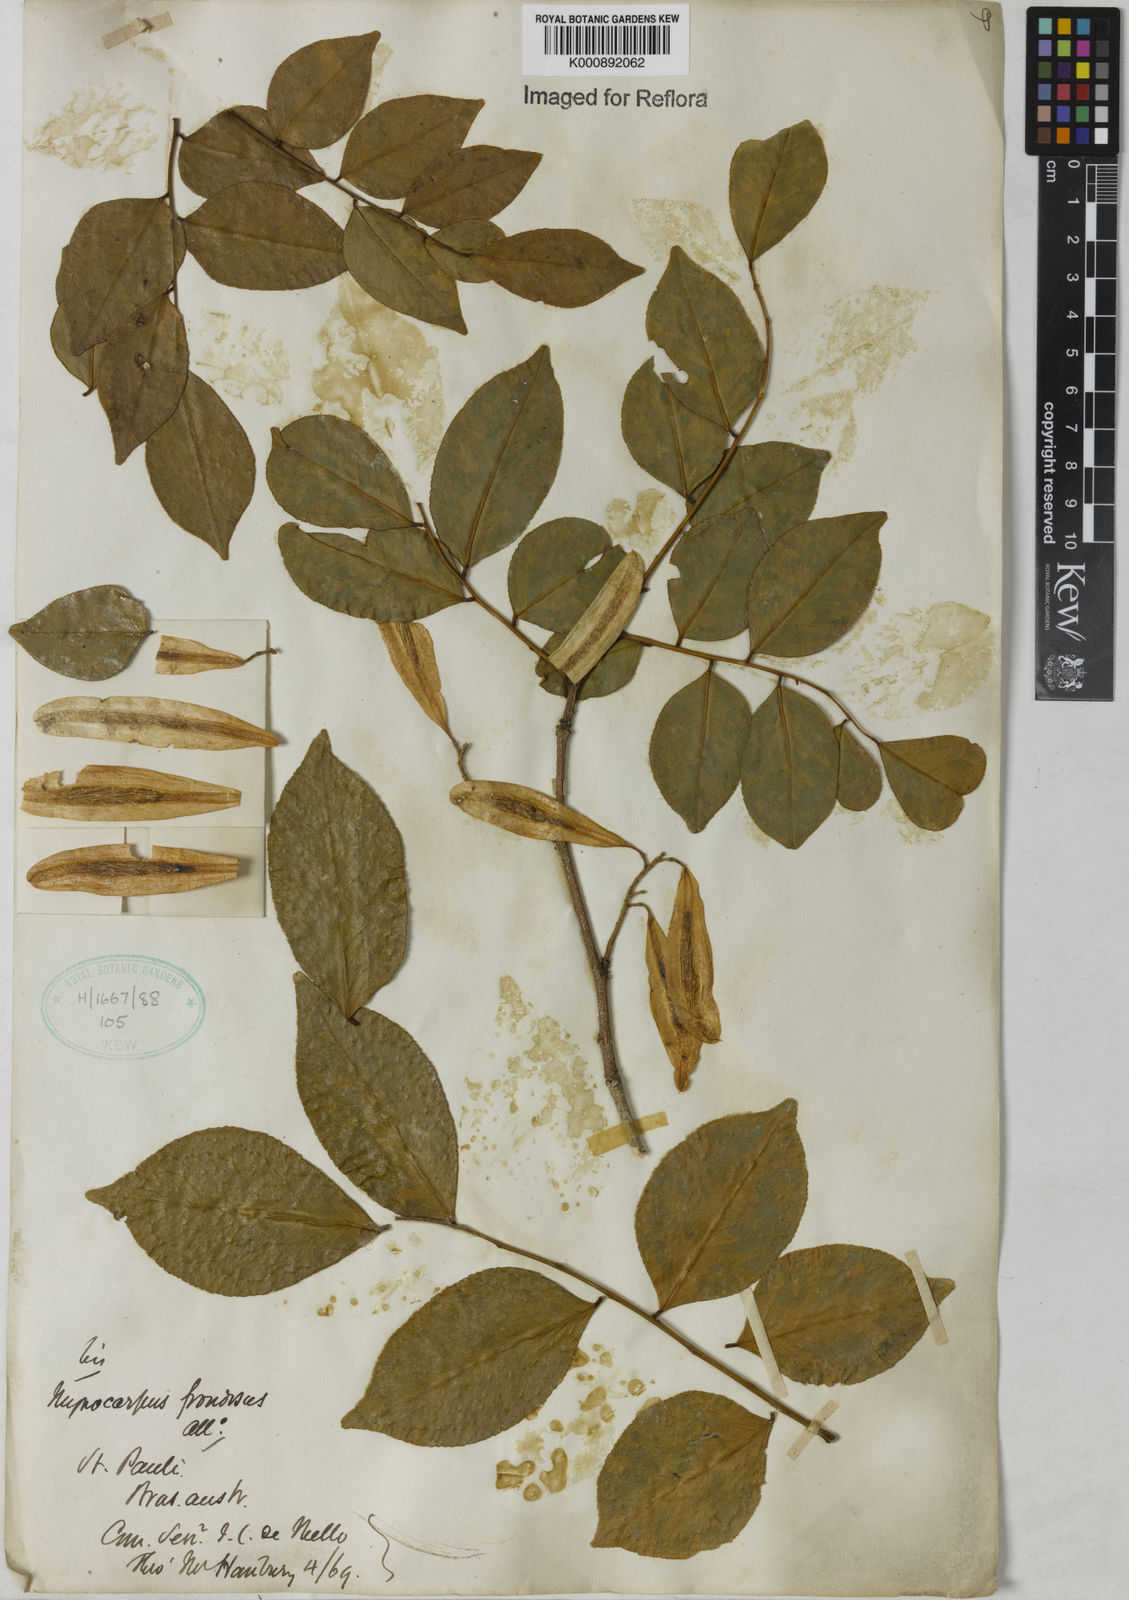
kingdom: Plantae
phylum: Tracheophyta
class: Magnoliopsida
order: Fabales
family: Fabaceae
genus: Myrocarpus
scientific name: Myrocarpus
